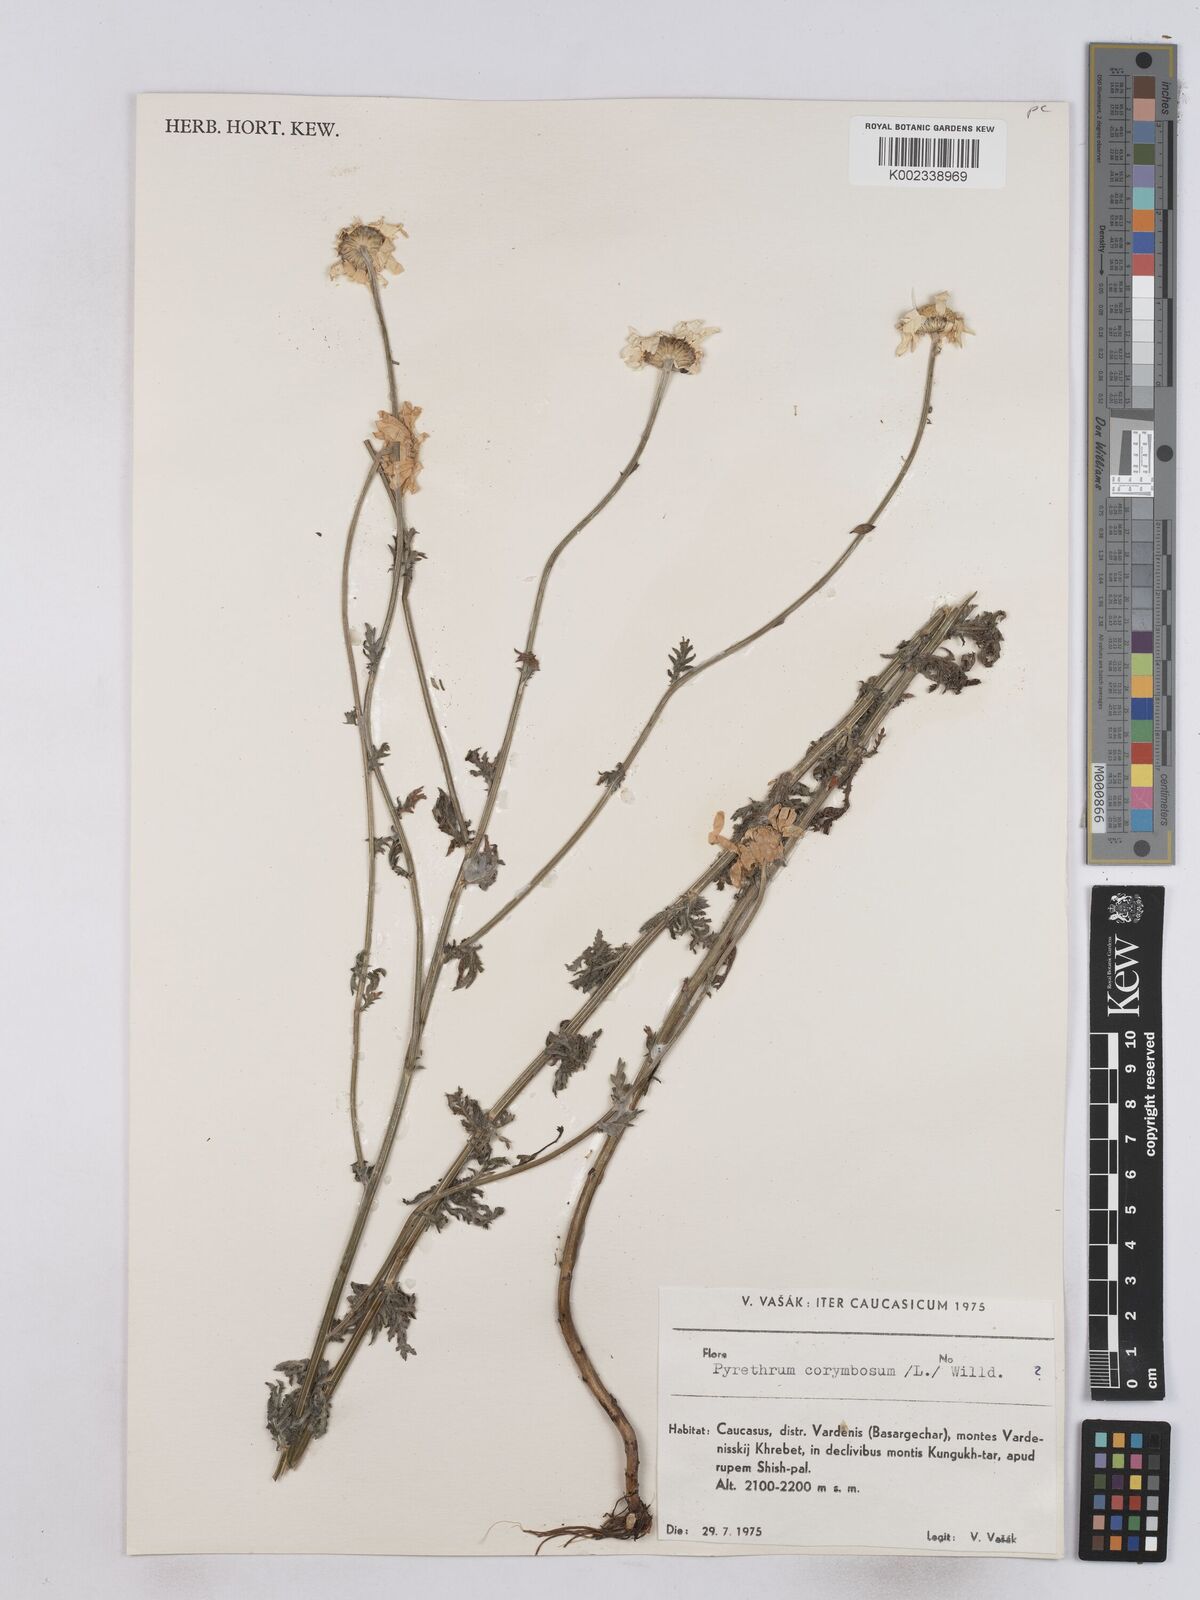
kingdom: Plantae
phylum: Tracheophyta
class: Magnoliopsida
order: Asterales
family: Asteraceae
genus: Tanacetum
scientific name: Tanacetum corymbosum
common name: Scentless feverfew
